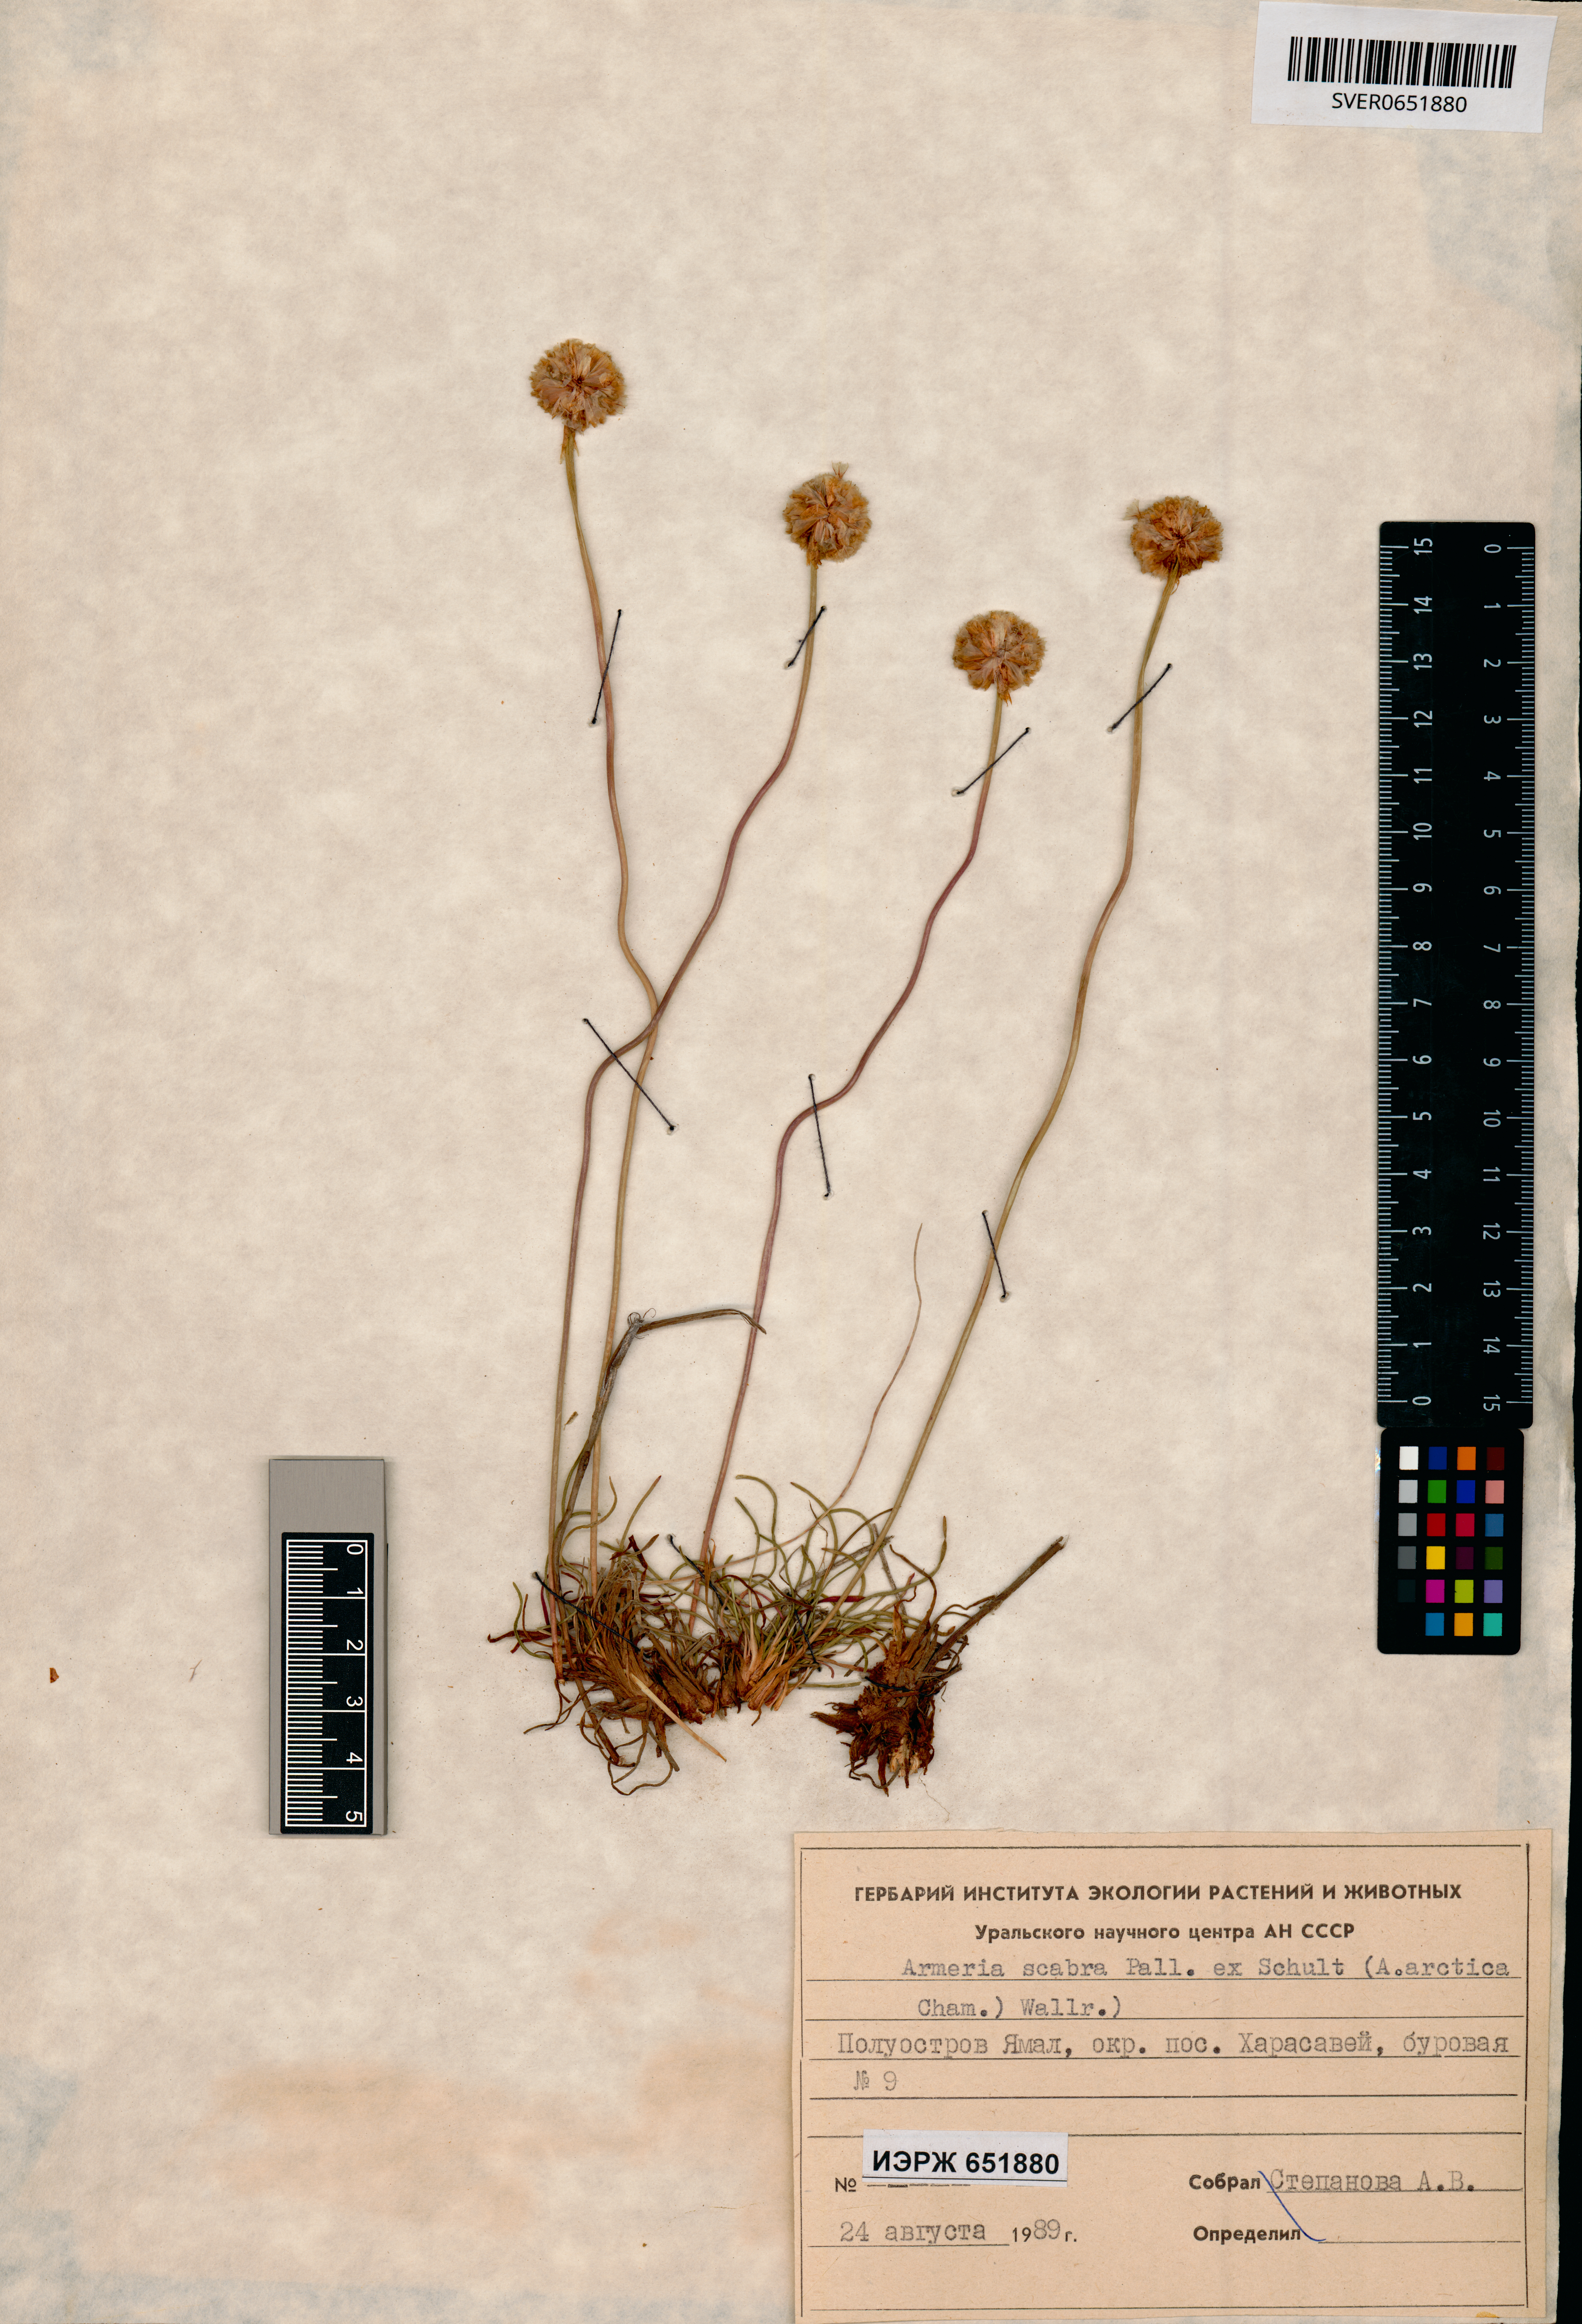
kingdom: Plantae
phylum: Tracheophyta
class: Magnoliopsida
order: Caryophyllales
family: Plumbaginaceae
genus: Armeria
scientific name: Armeria maritima
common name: Thrift
